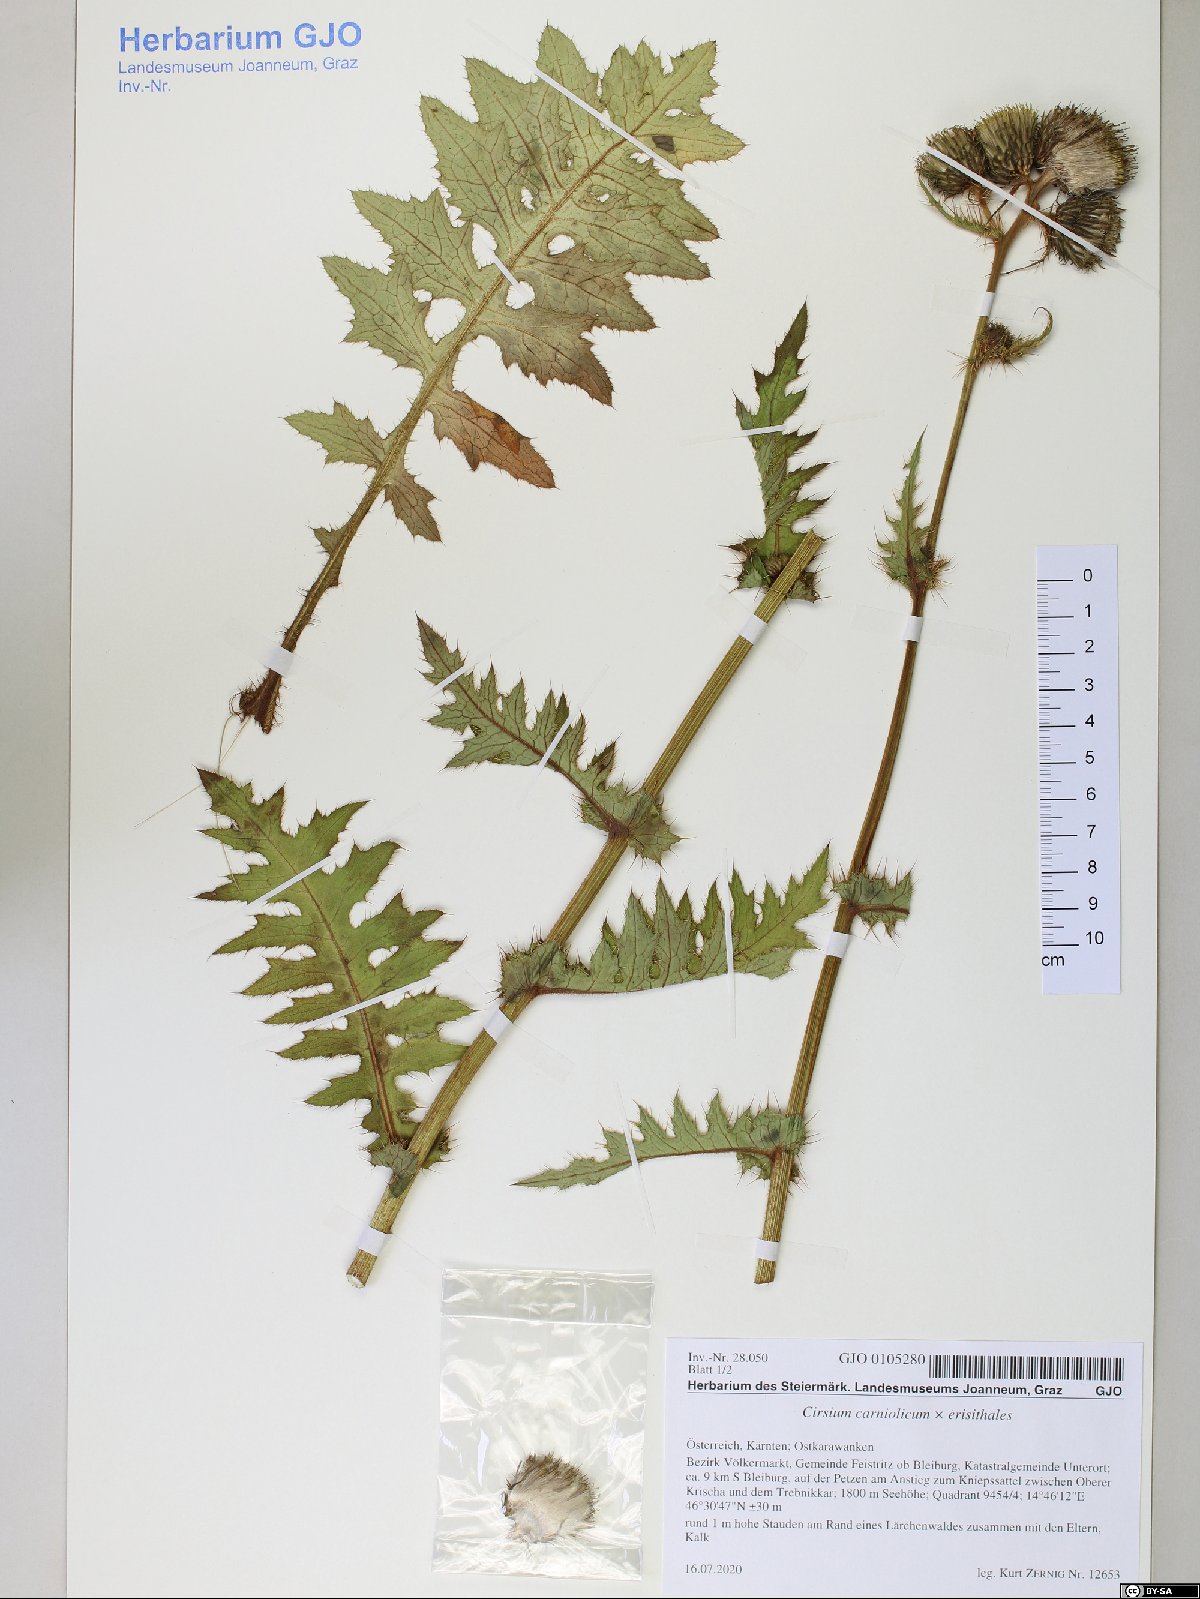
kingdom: Plantae
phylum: Tracheophyta
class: Magnoliopsida
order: Asterales
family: Asteraceae
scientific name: Asteraceae
